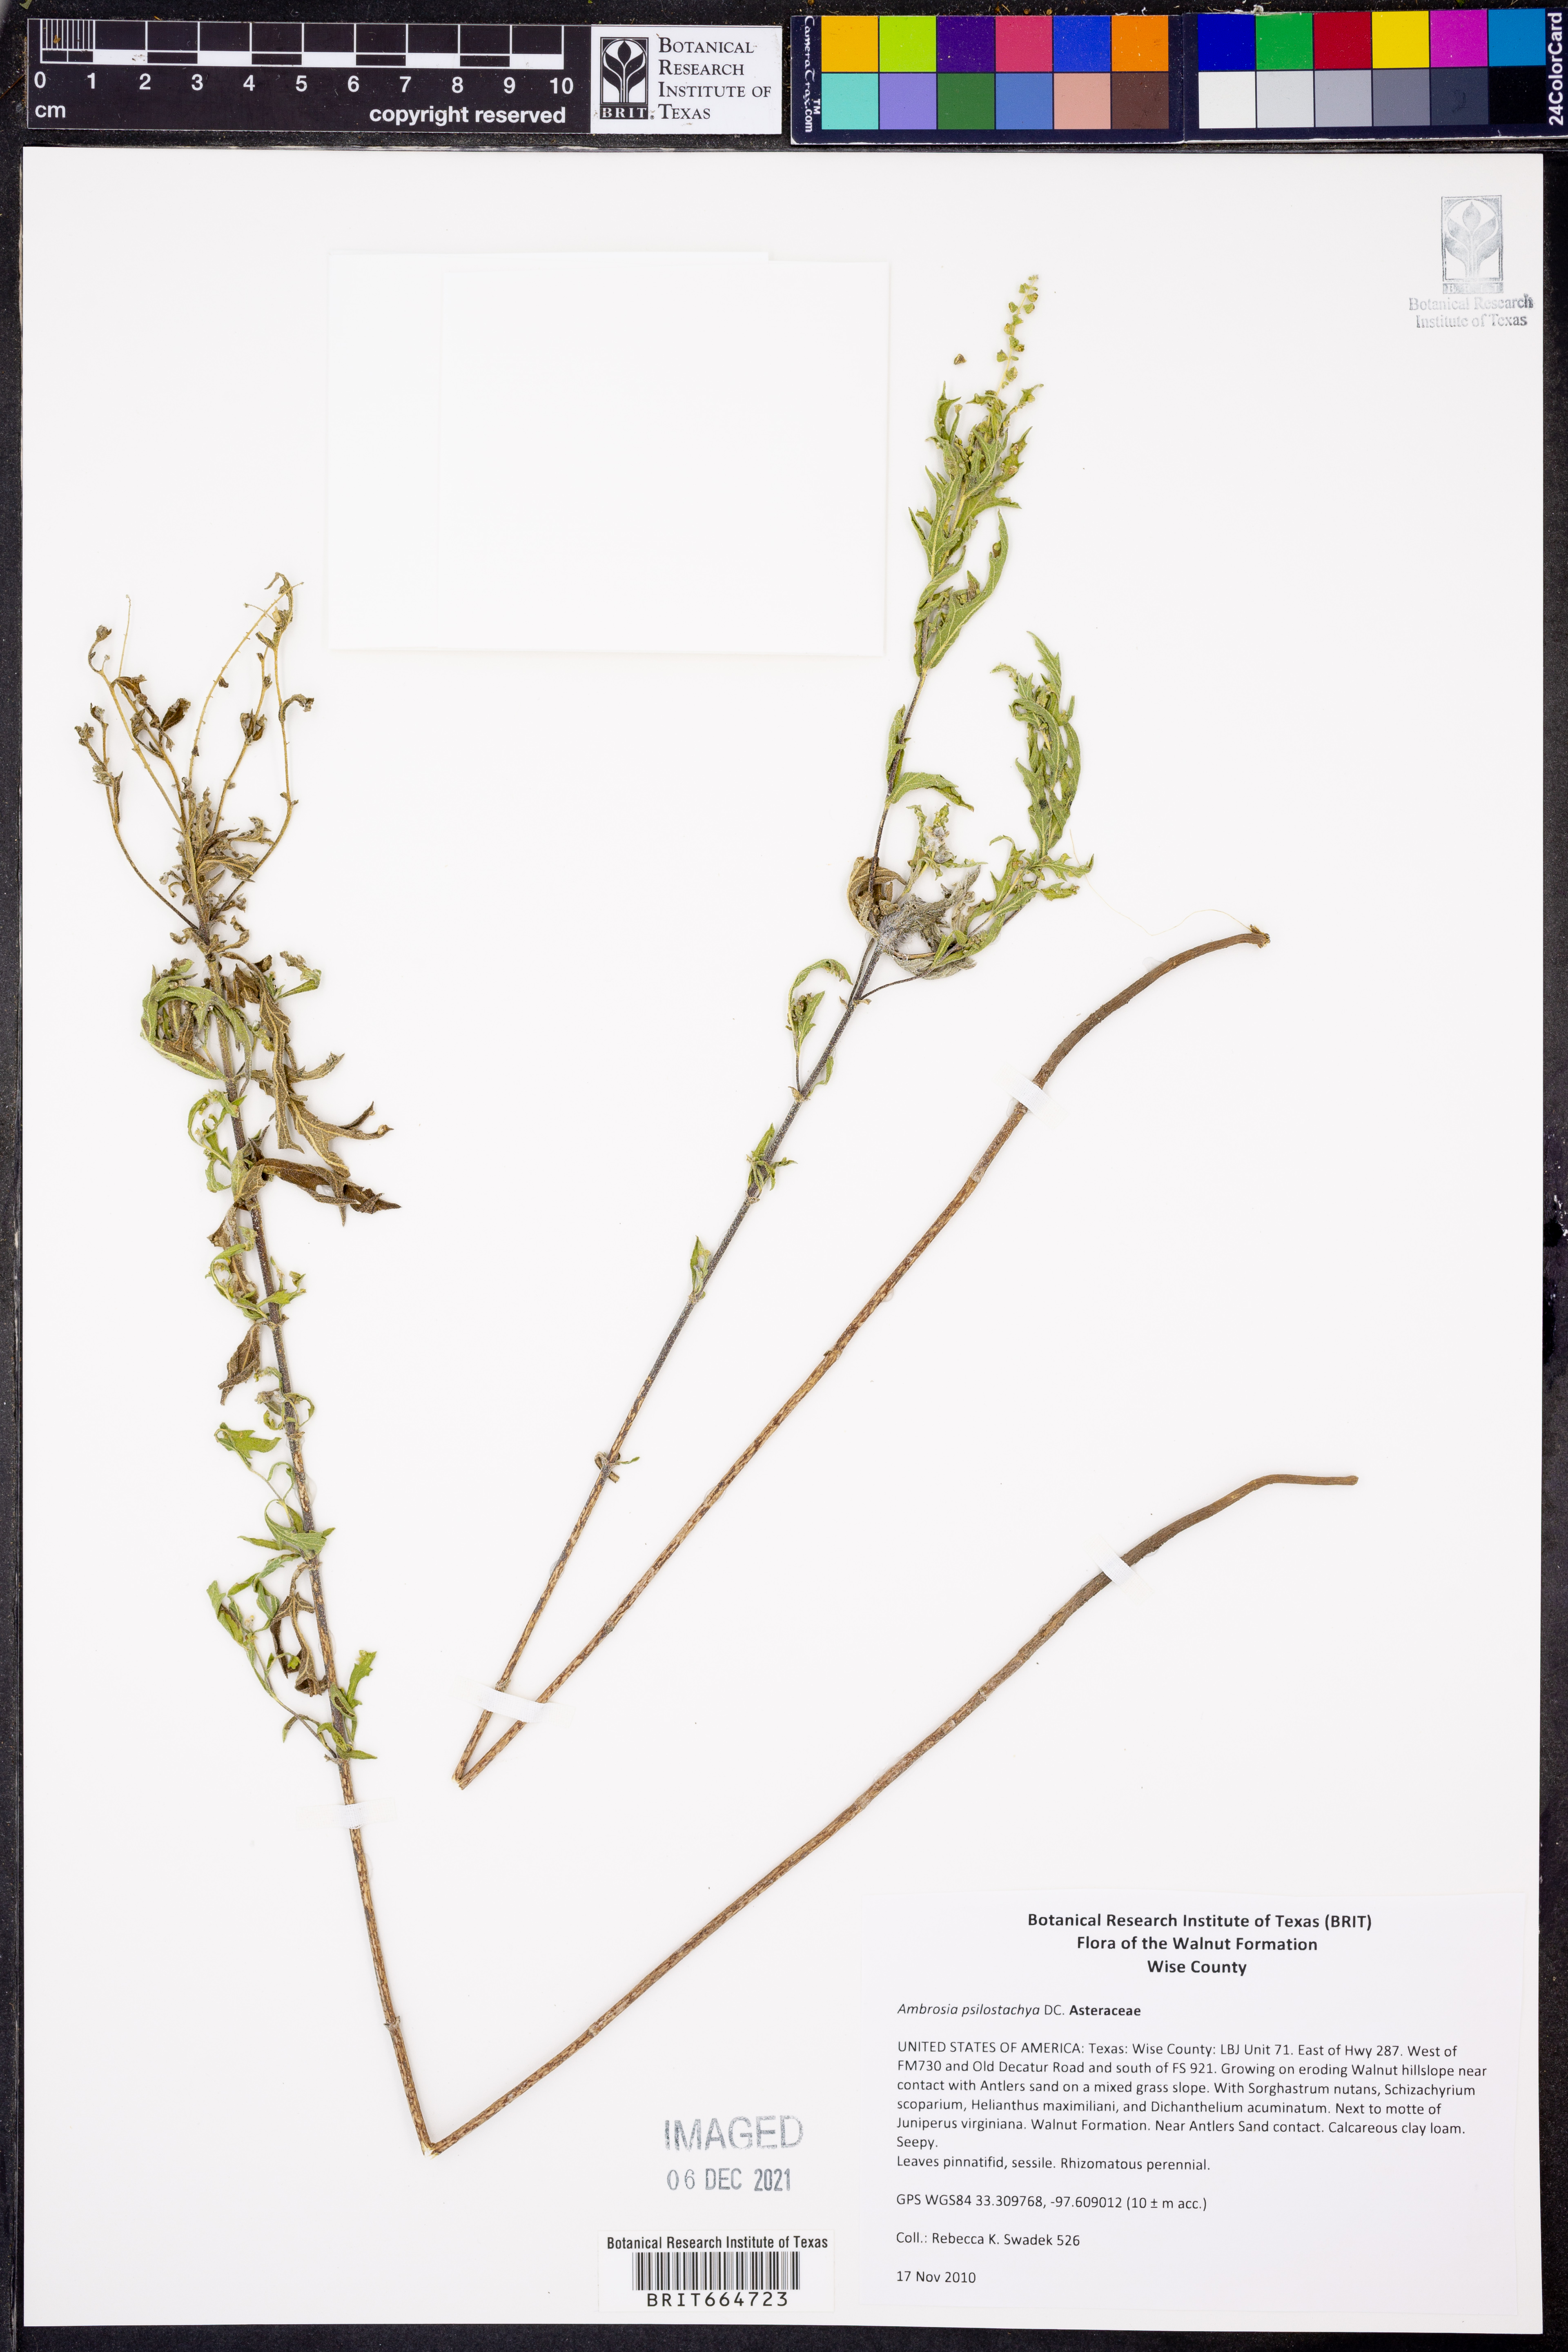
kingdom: Plantae
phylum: Tracheophyta
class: Magnoliopsida
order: Asterales
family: Asteraceae
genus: Ambrosia
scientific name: Ambrosia psilostachya
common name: Perennial ragweed
